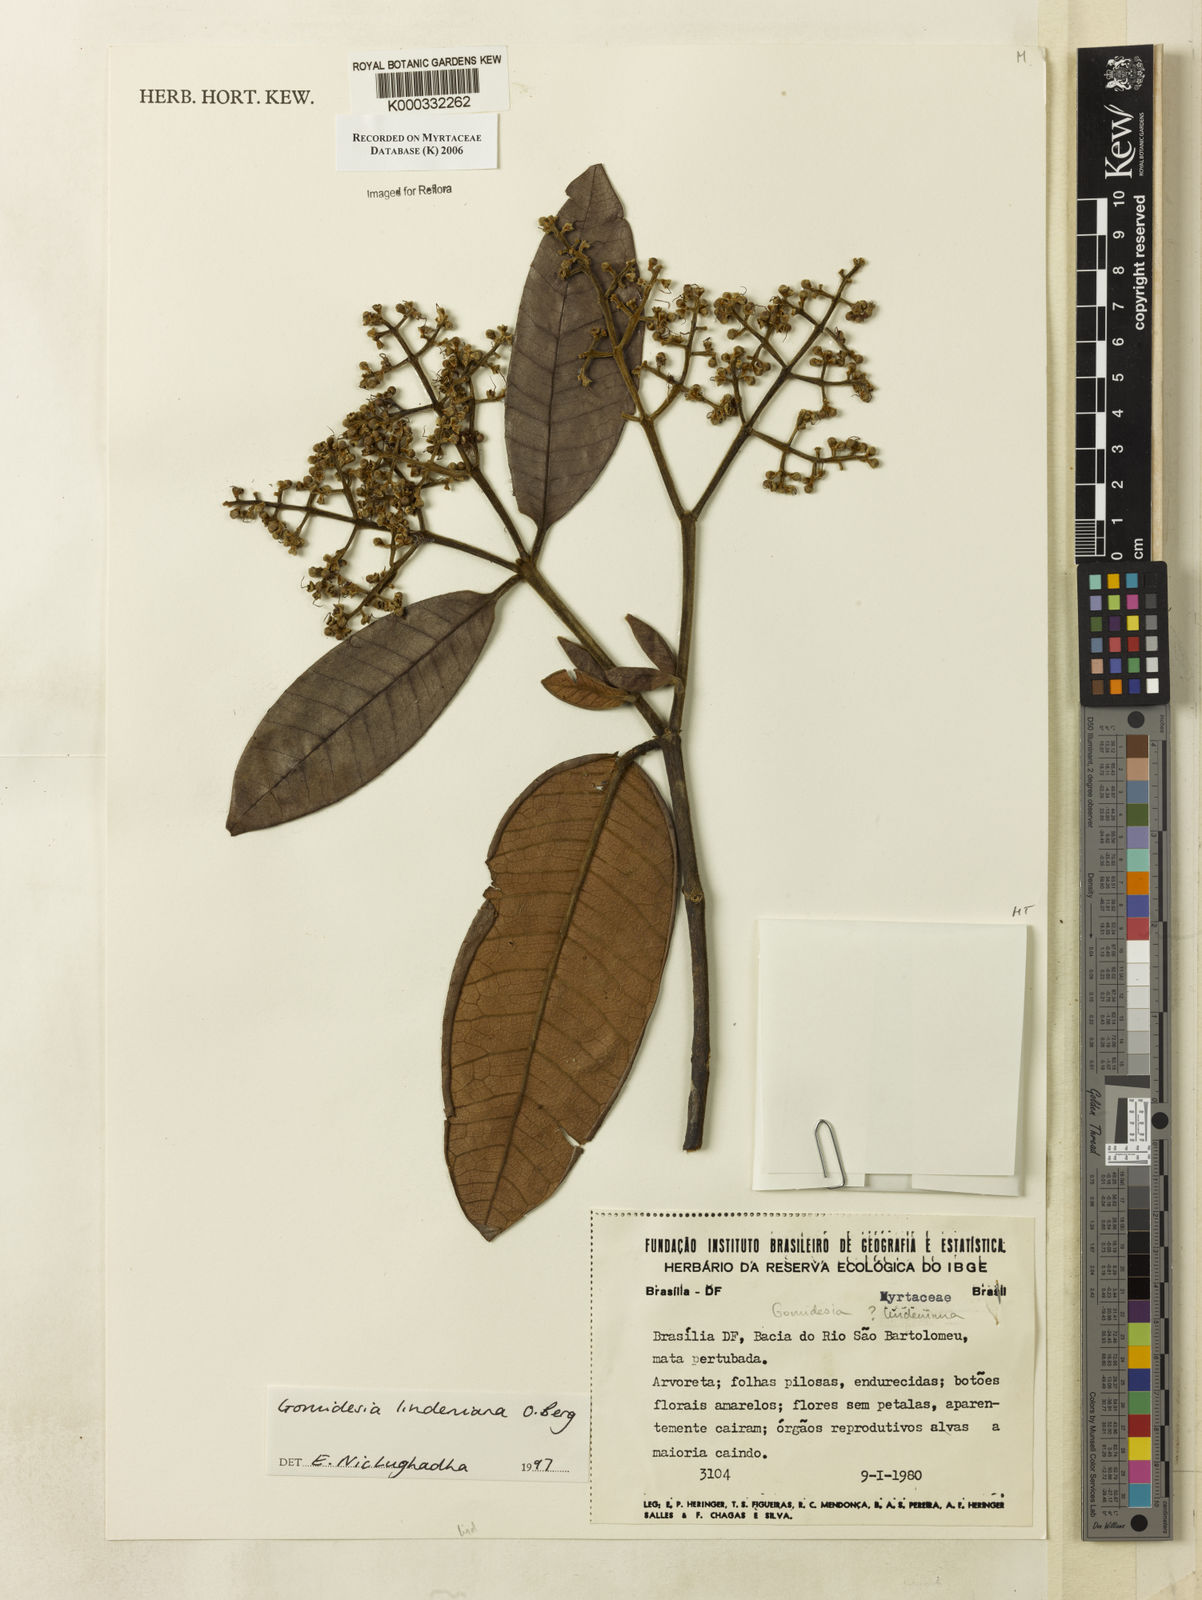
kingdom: Plantae
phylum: Tracheophyta
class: Magnoliopsida
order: Myrtales
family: Myrtaceae
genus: Myrcia
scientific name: Myrcia fenzliana
